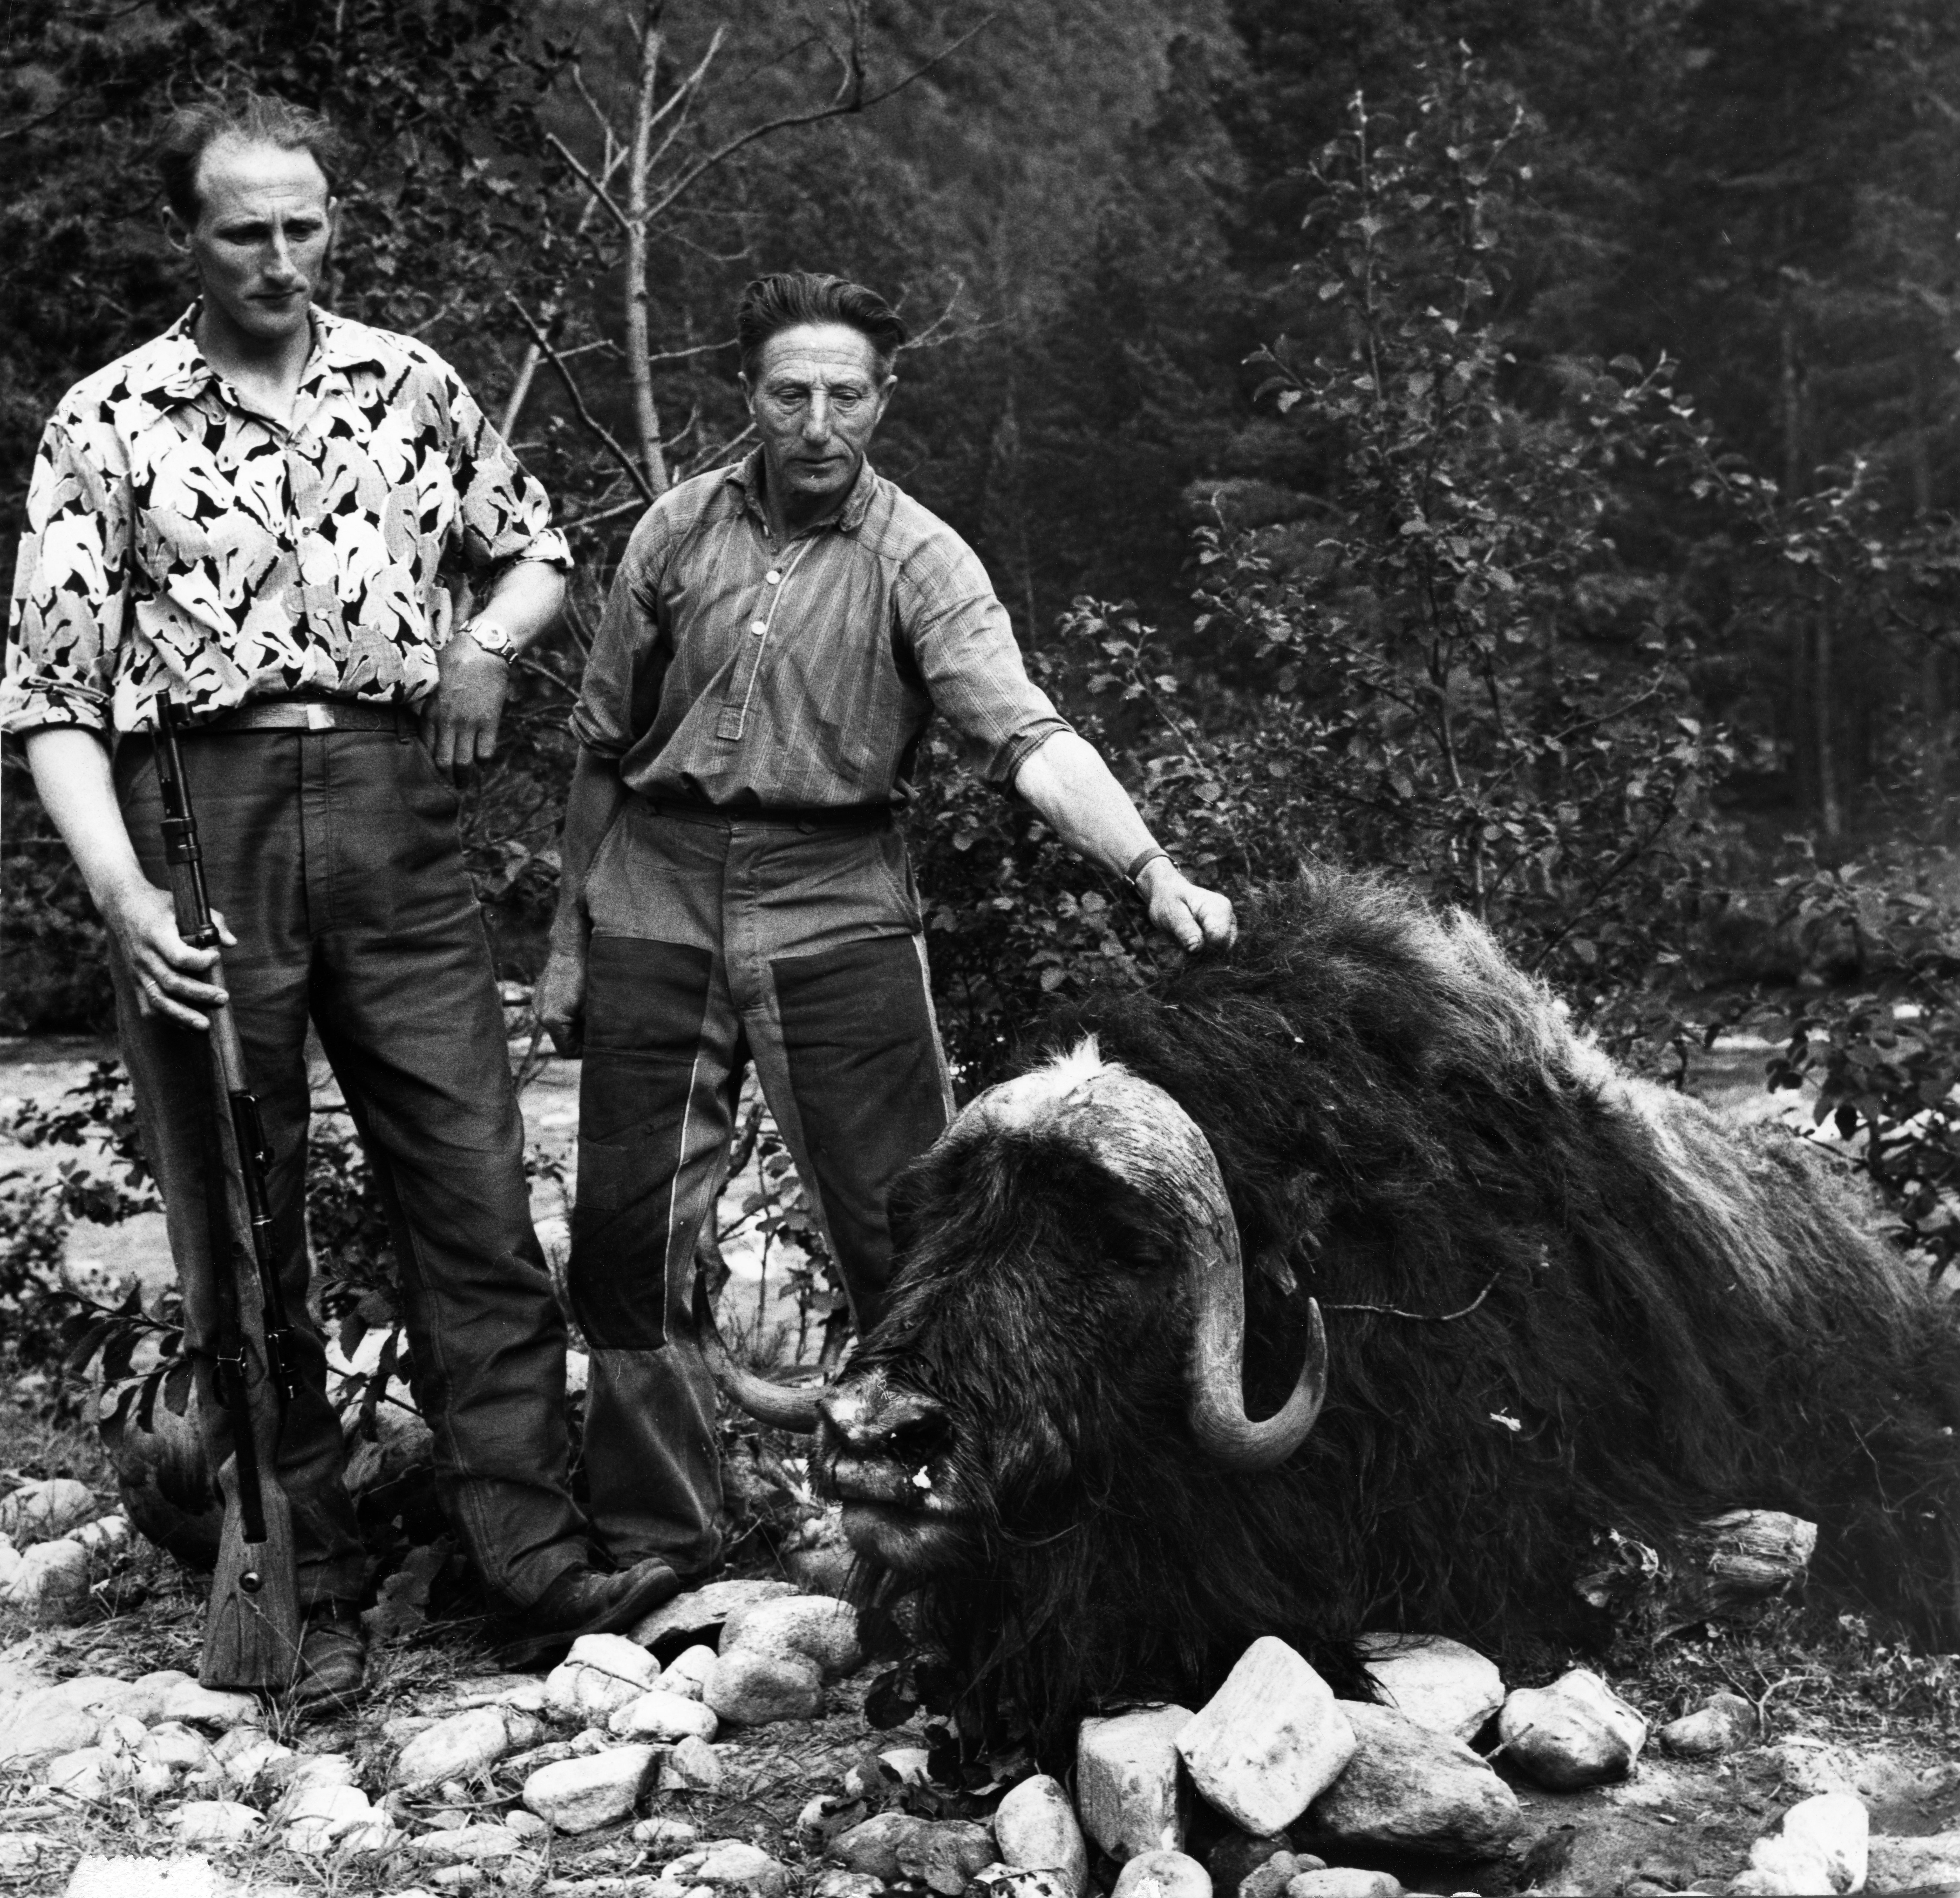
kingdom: Animalia
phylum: Chordata
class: Mammalia
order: Artiodactyla
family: Bovidae
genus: Ovibos
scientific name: Ovibos moschatus
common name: Muskox
